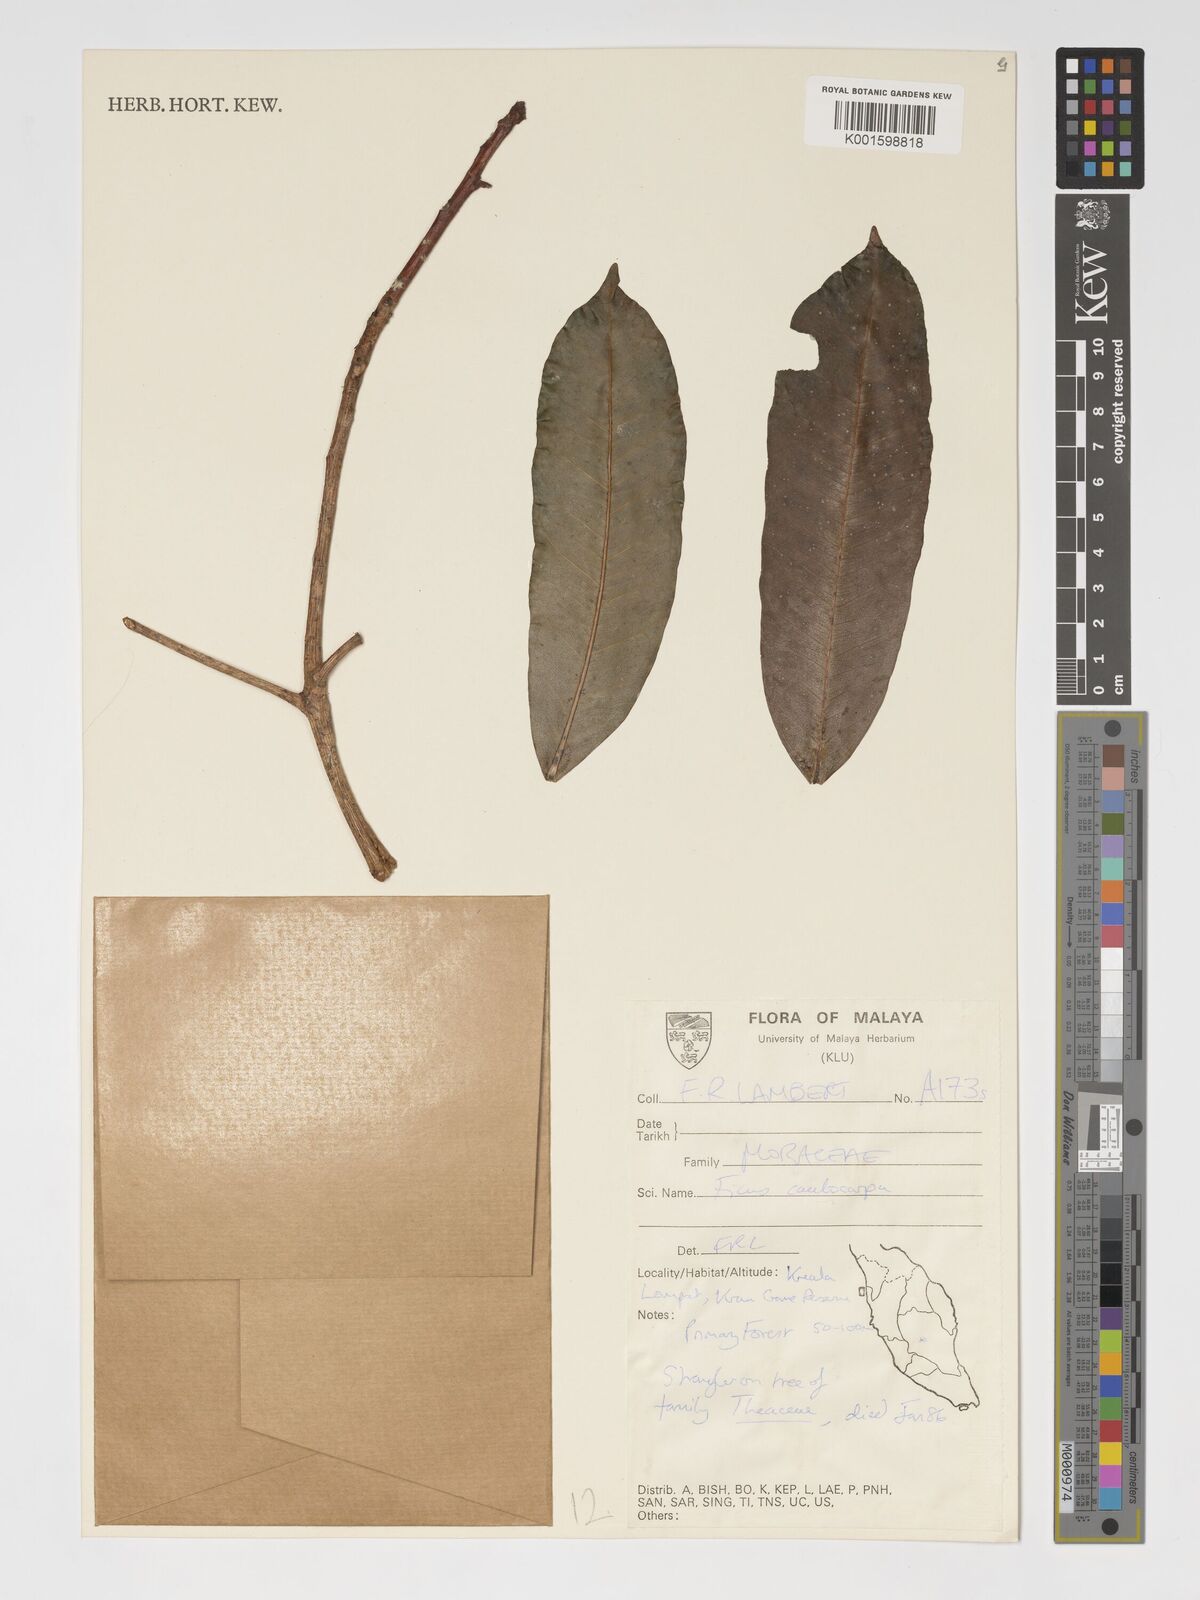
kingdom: Plantae
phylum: Tracheophyta
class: Magnoliopsida
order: Rosales
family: Moraceae
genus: Ficus
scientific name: Ficus caulocarpa
